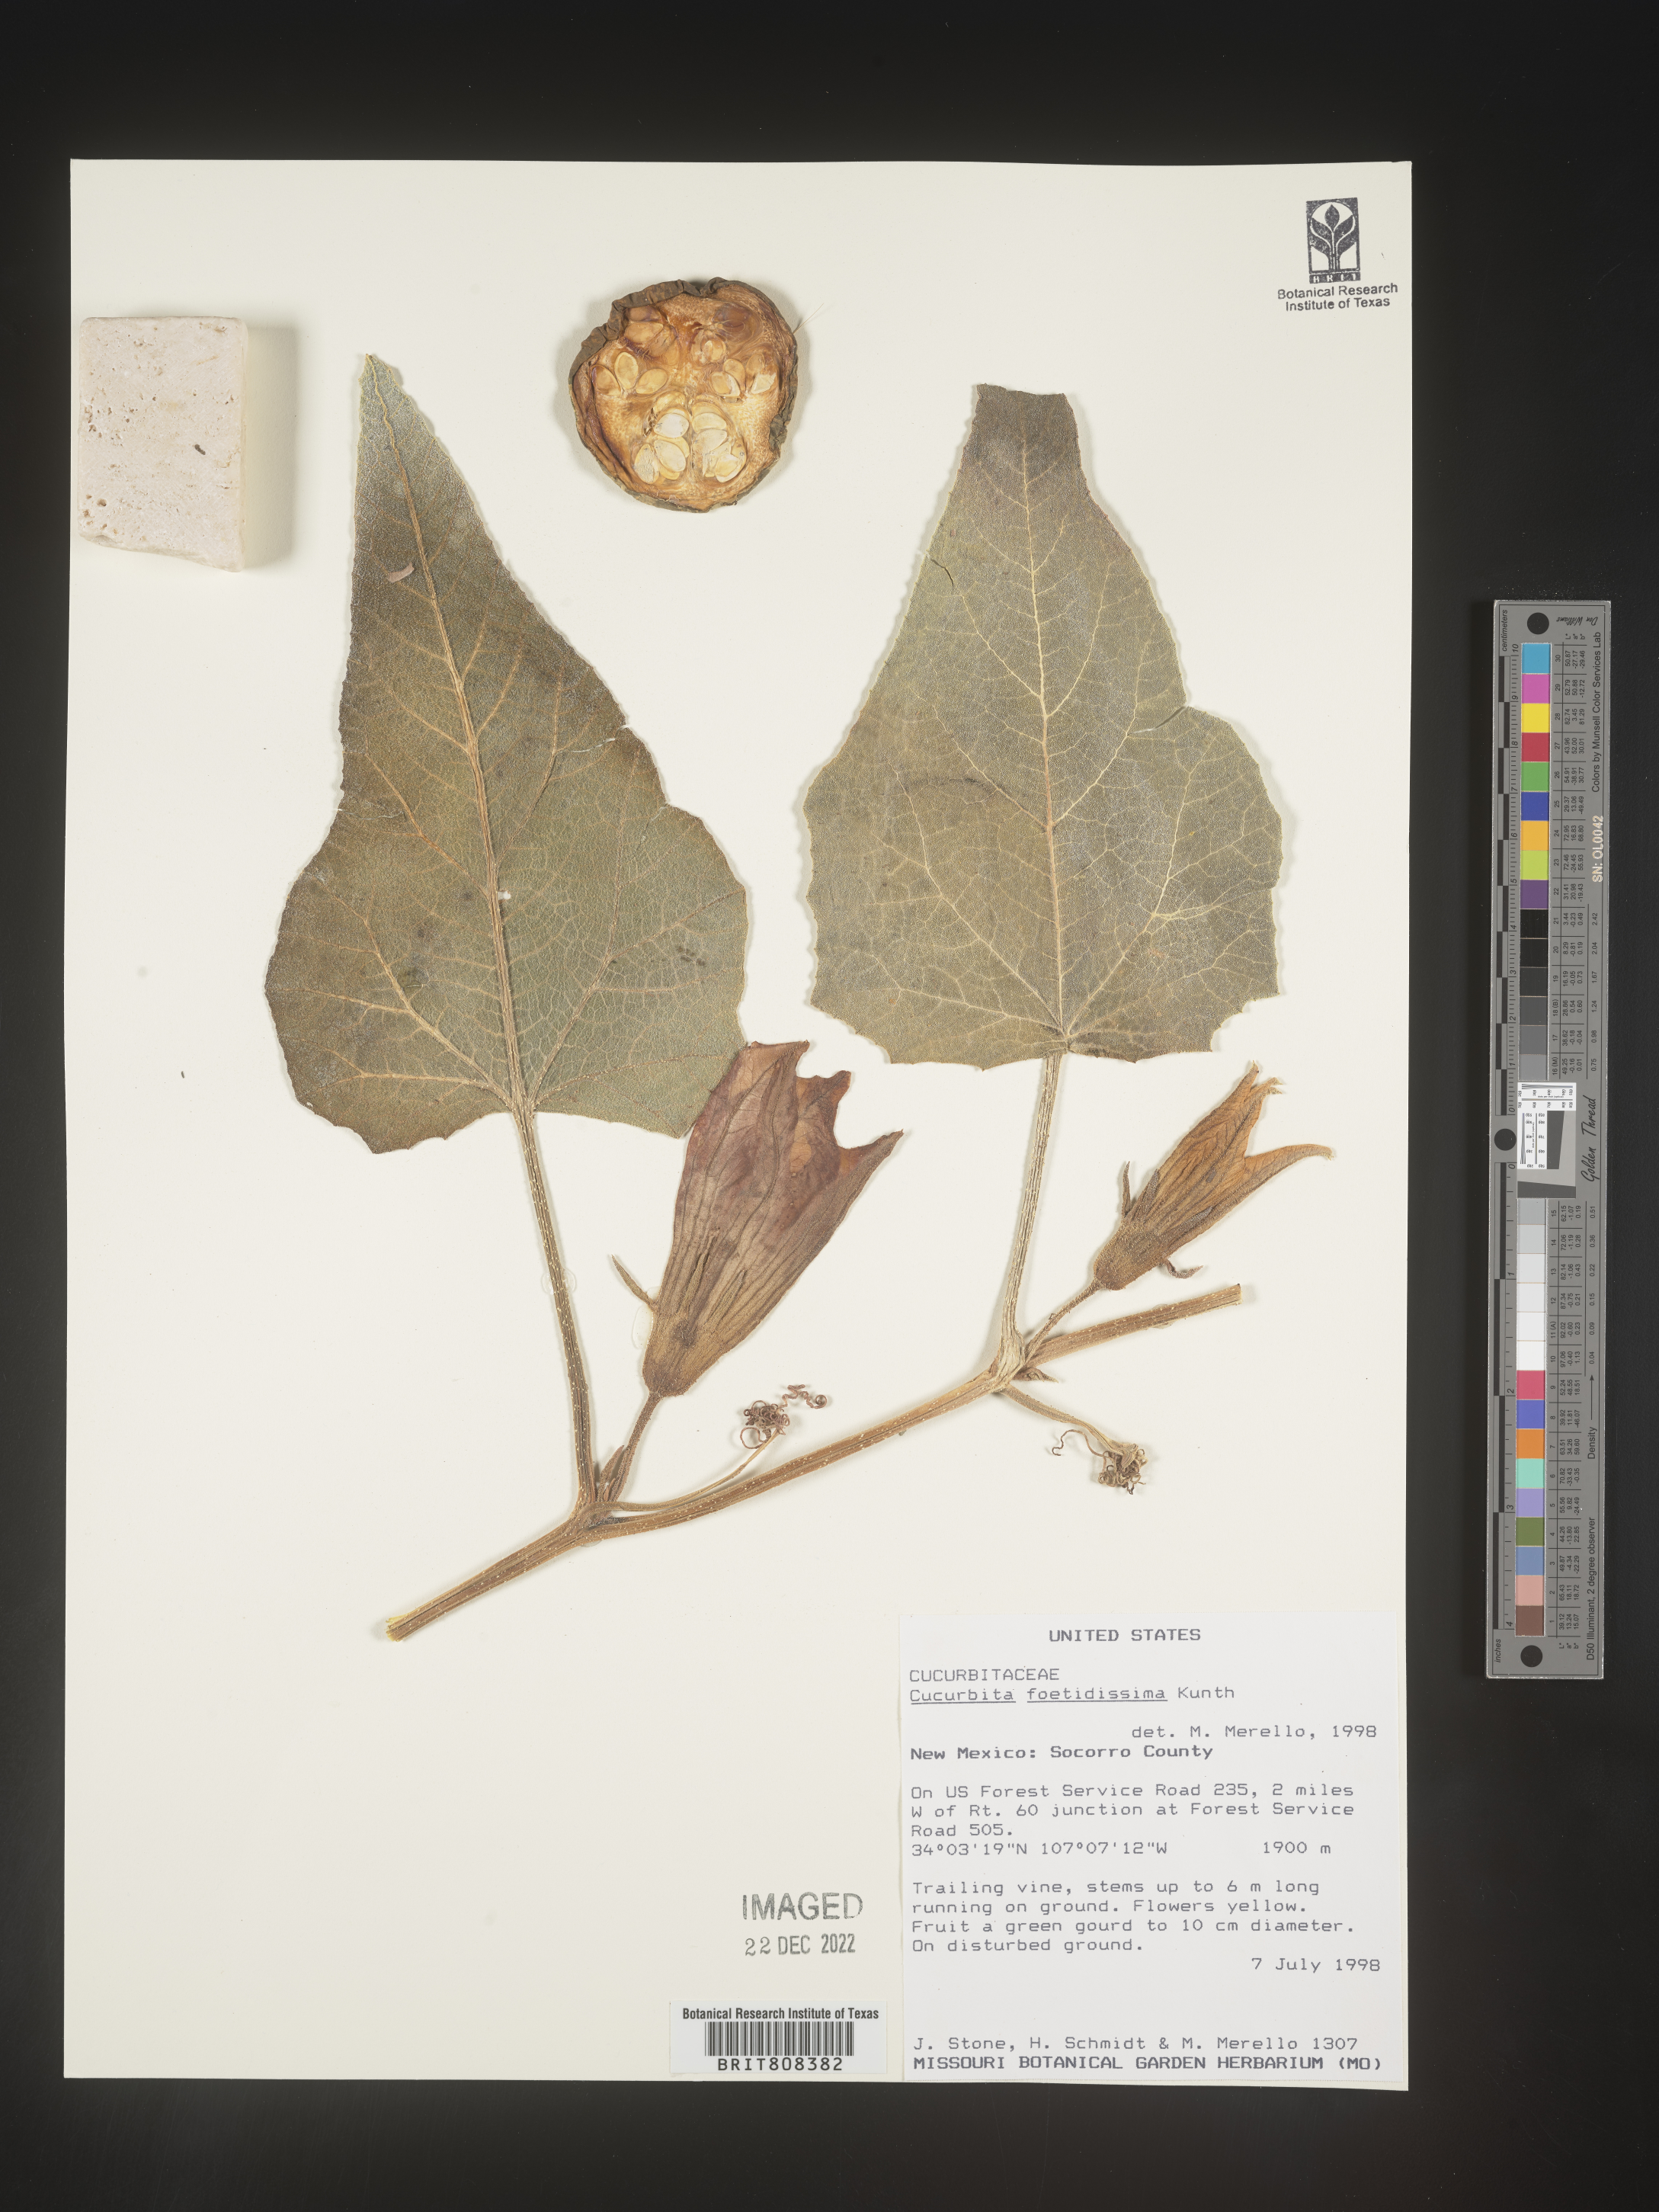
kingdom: Plantae
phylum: Tracheophyta
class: Magnoliopsida
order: Cucurbitales
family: Cucurbitaceae
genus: Cucurbita
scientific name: Cucurbita foetidissima
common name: Buffalo gourd
